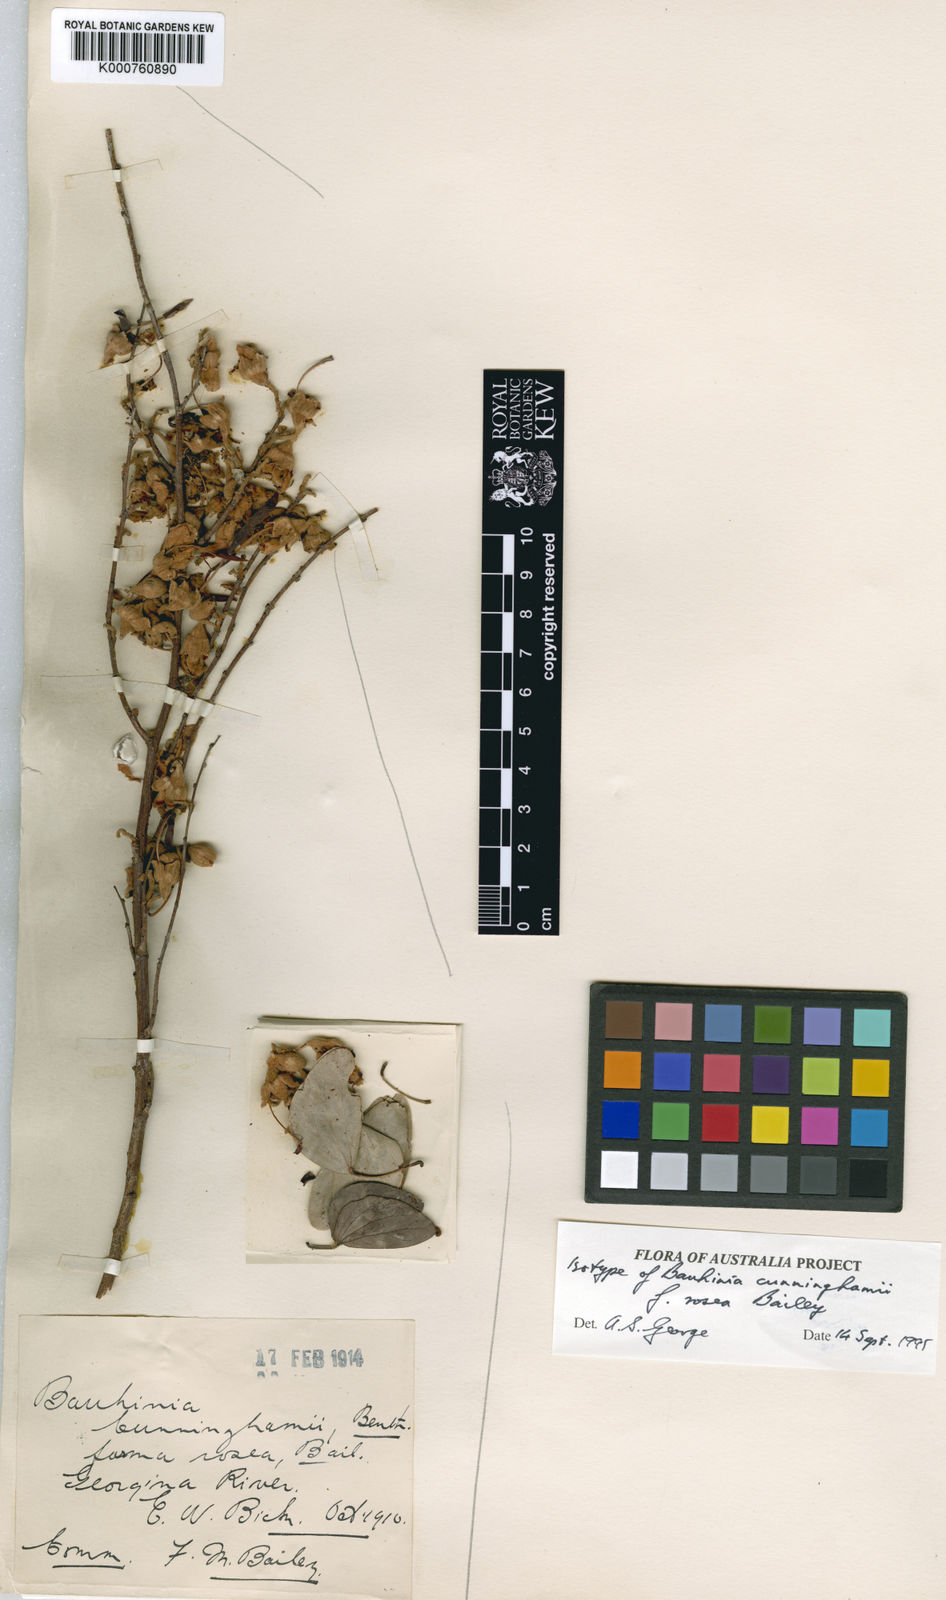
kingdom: Plantae
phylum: Tracheophyta
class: Magnoliopsida
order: Fabales
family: Fabaceae
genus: Lysiphyllum
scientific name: Lysiphyllum gilvum
